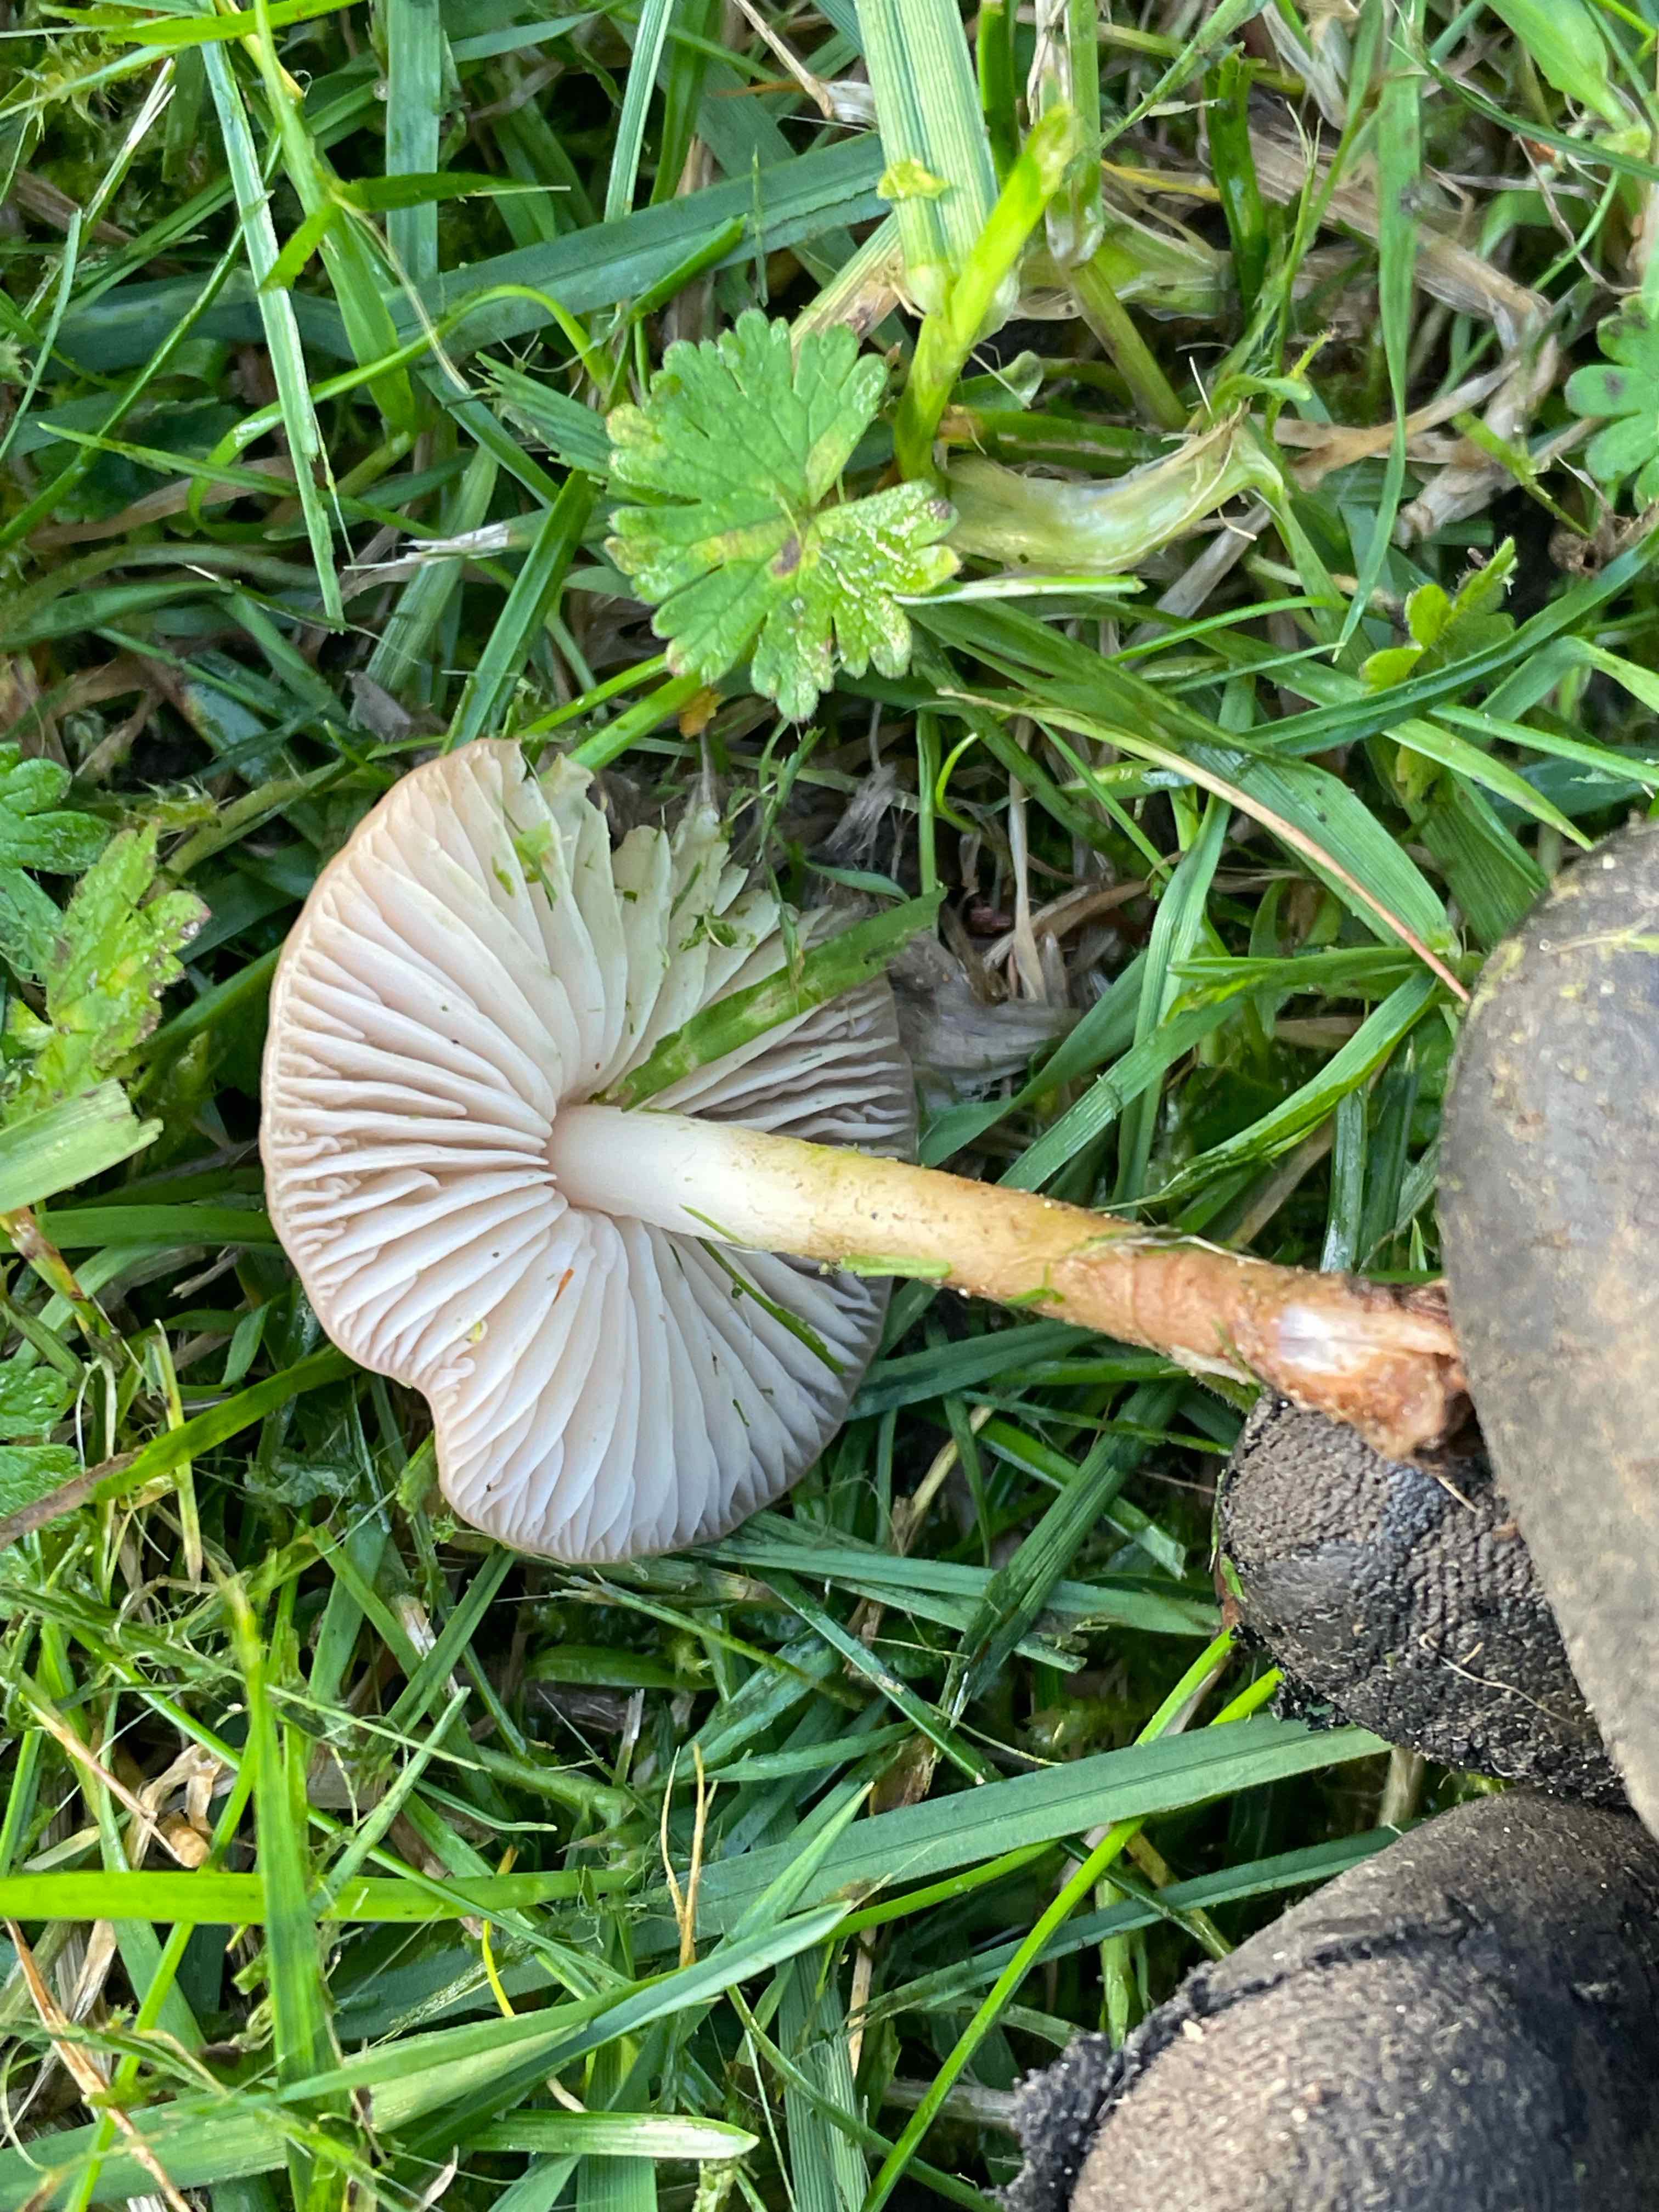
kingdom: Fungi
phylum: Basidiomycota
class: Agaricomycetes
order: Agaricales
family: Marasmiaceae
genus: Marasmius
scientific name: Marasmius oreades
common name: elledans-bruskhat
